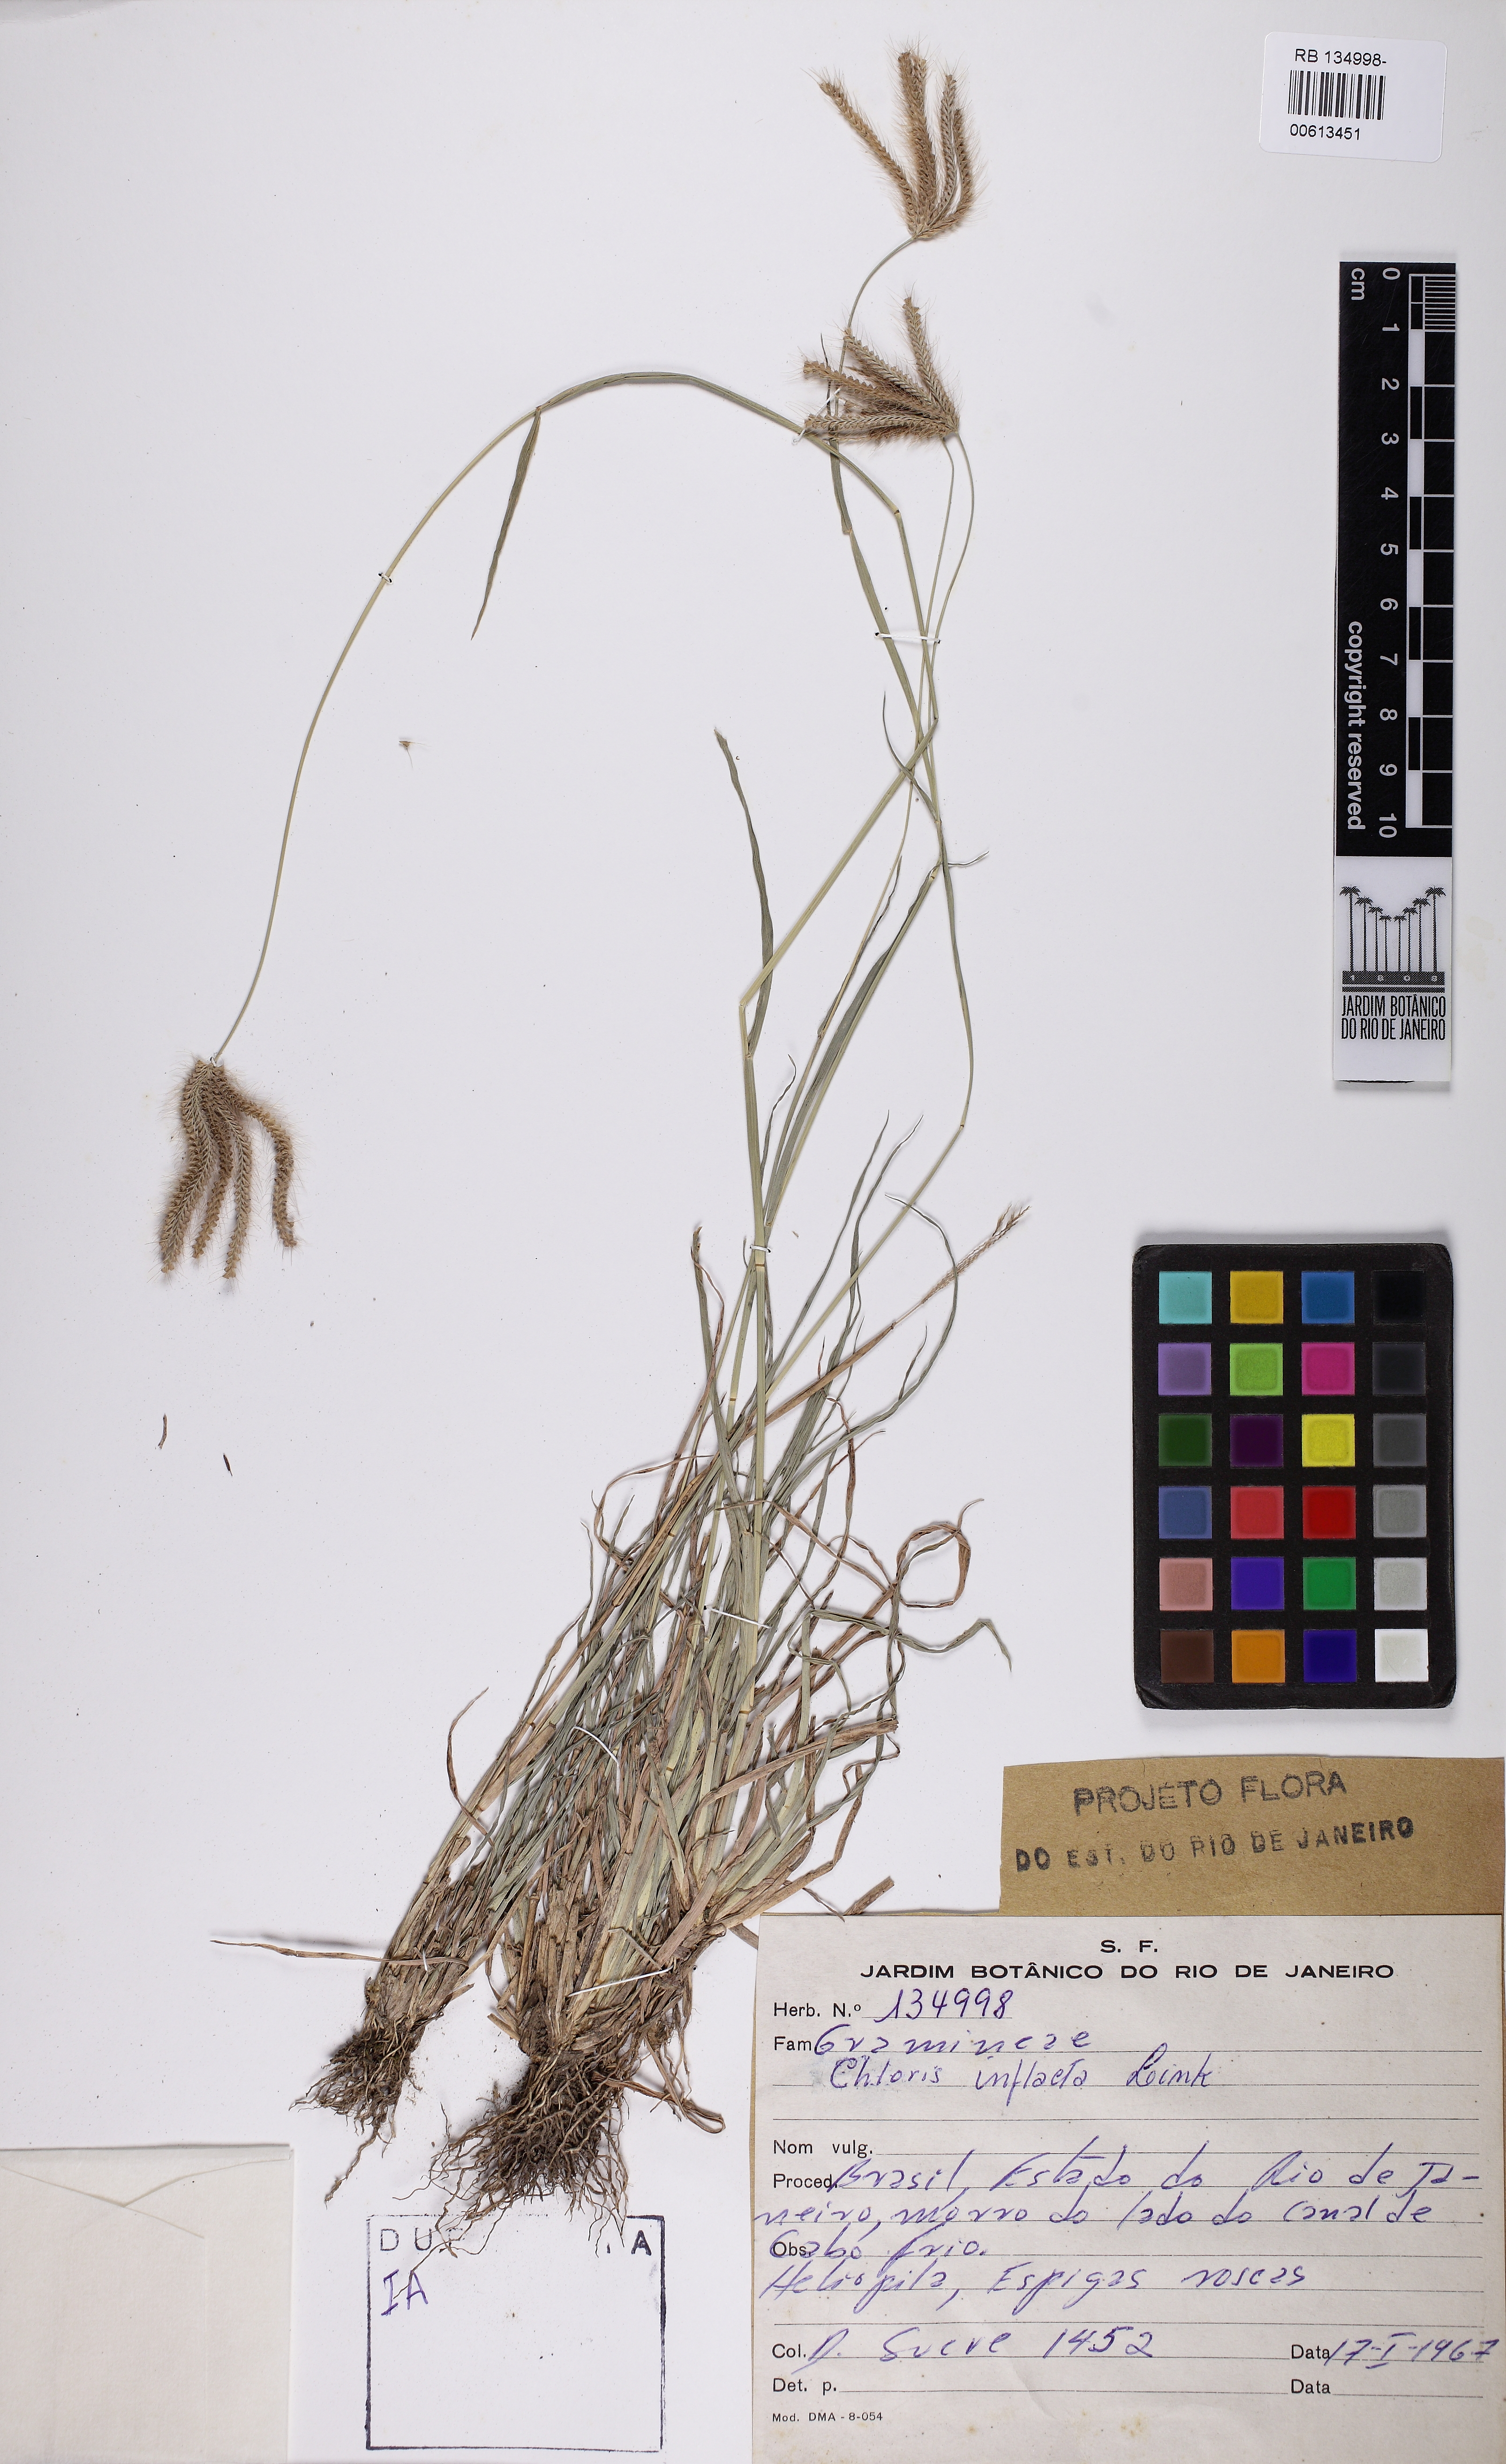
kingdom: Plantae
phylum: Tracheophyta
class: Liliopsida
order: Poales
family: Poaceae
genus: Chloris
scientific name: Chloris barbata
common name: Swollen fingergrass
